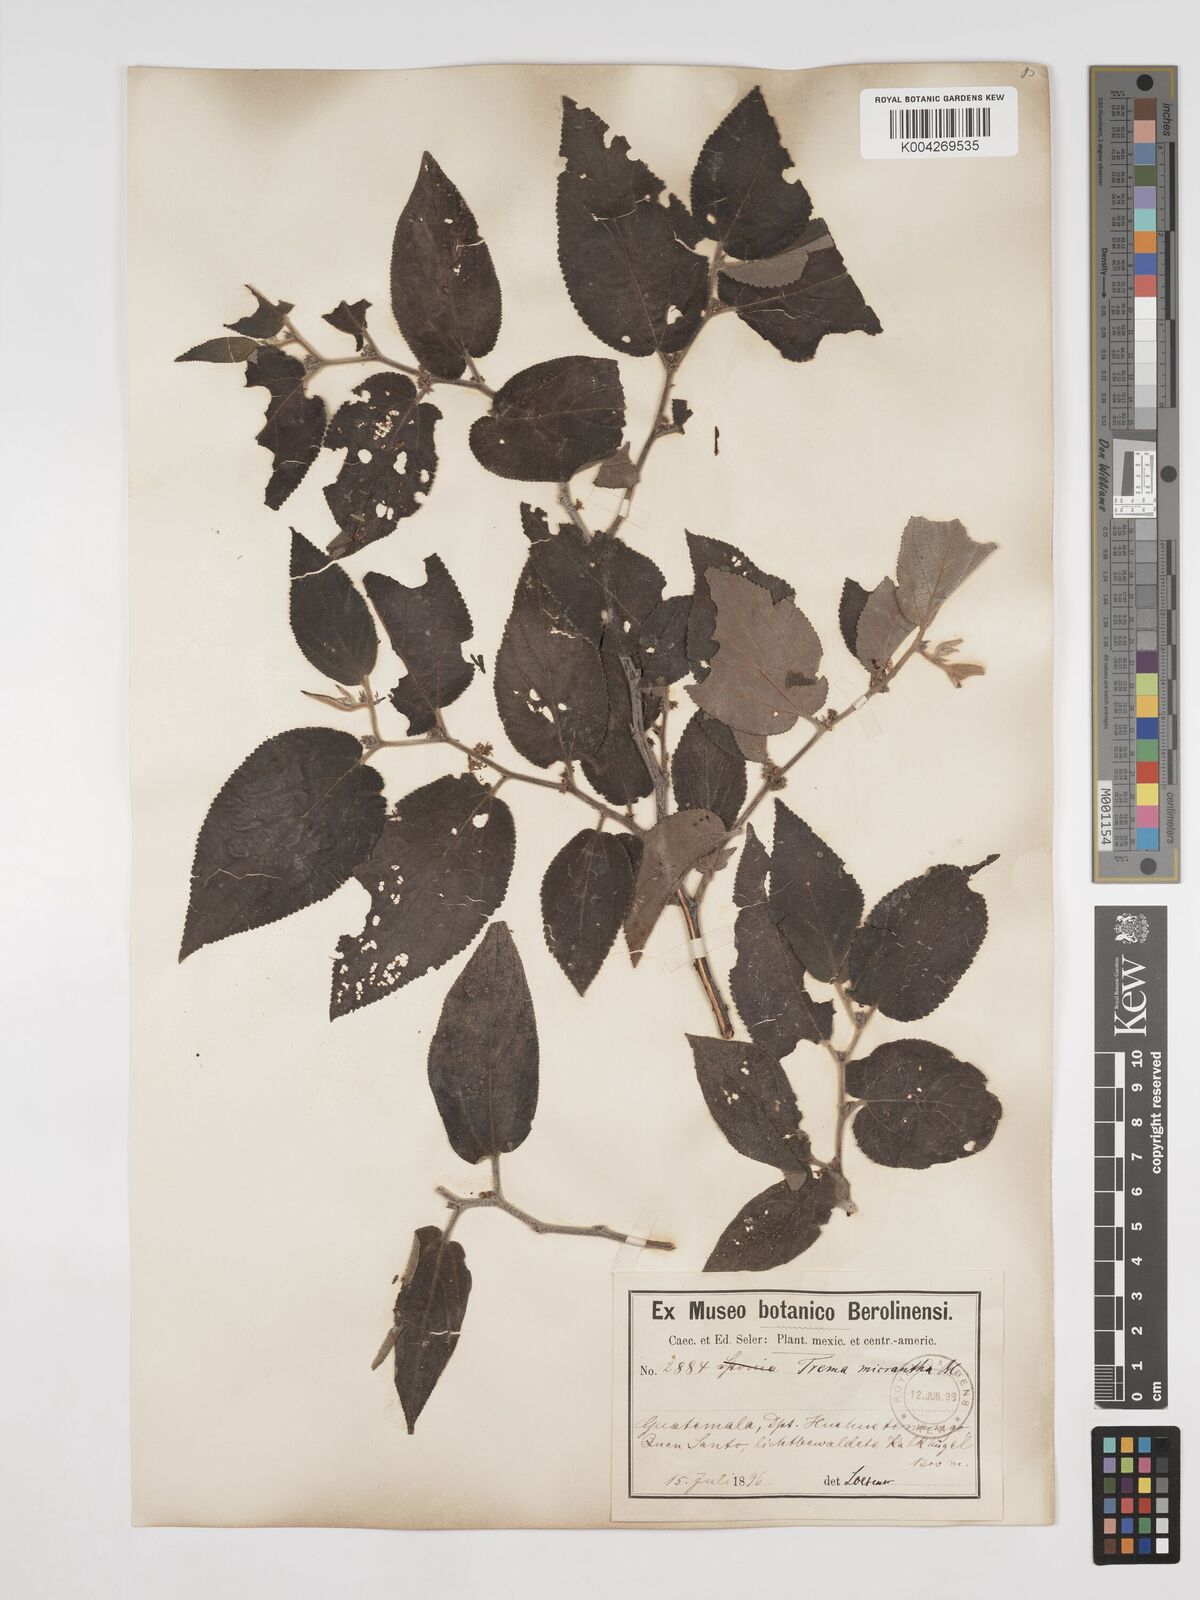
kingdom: Plantae
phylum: Tracheophyta
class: Magnoliopsida
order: Rosales
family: Cannabaceae
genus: Trema
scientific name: Trema micranthum
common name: Jamaican nettletree
